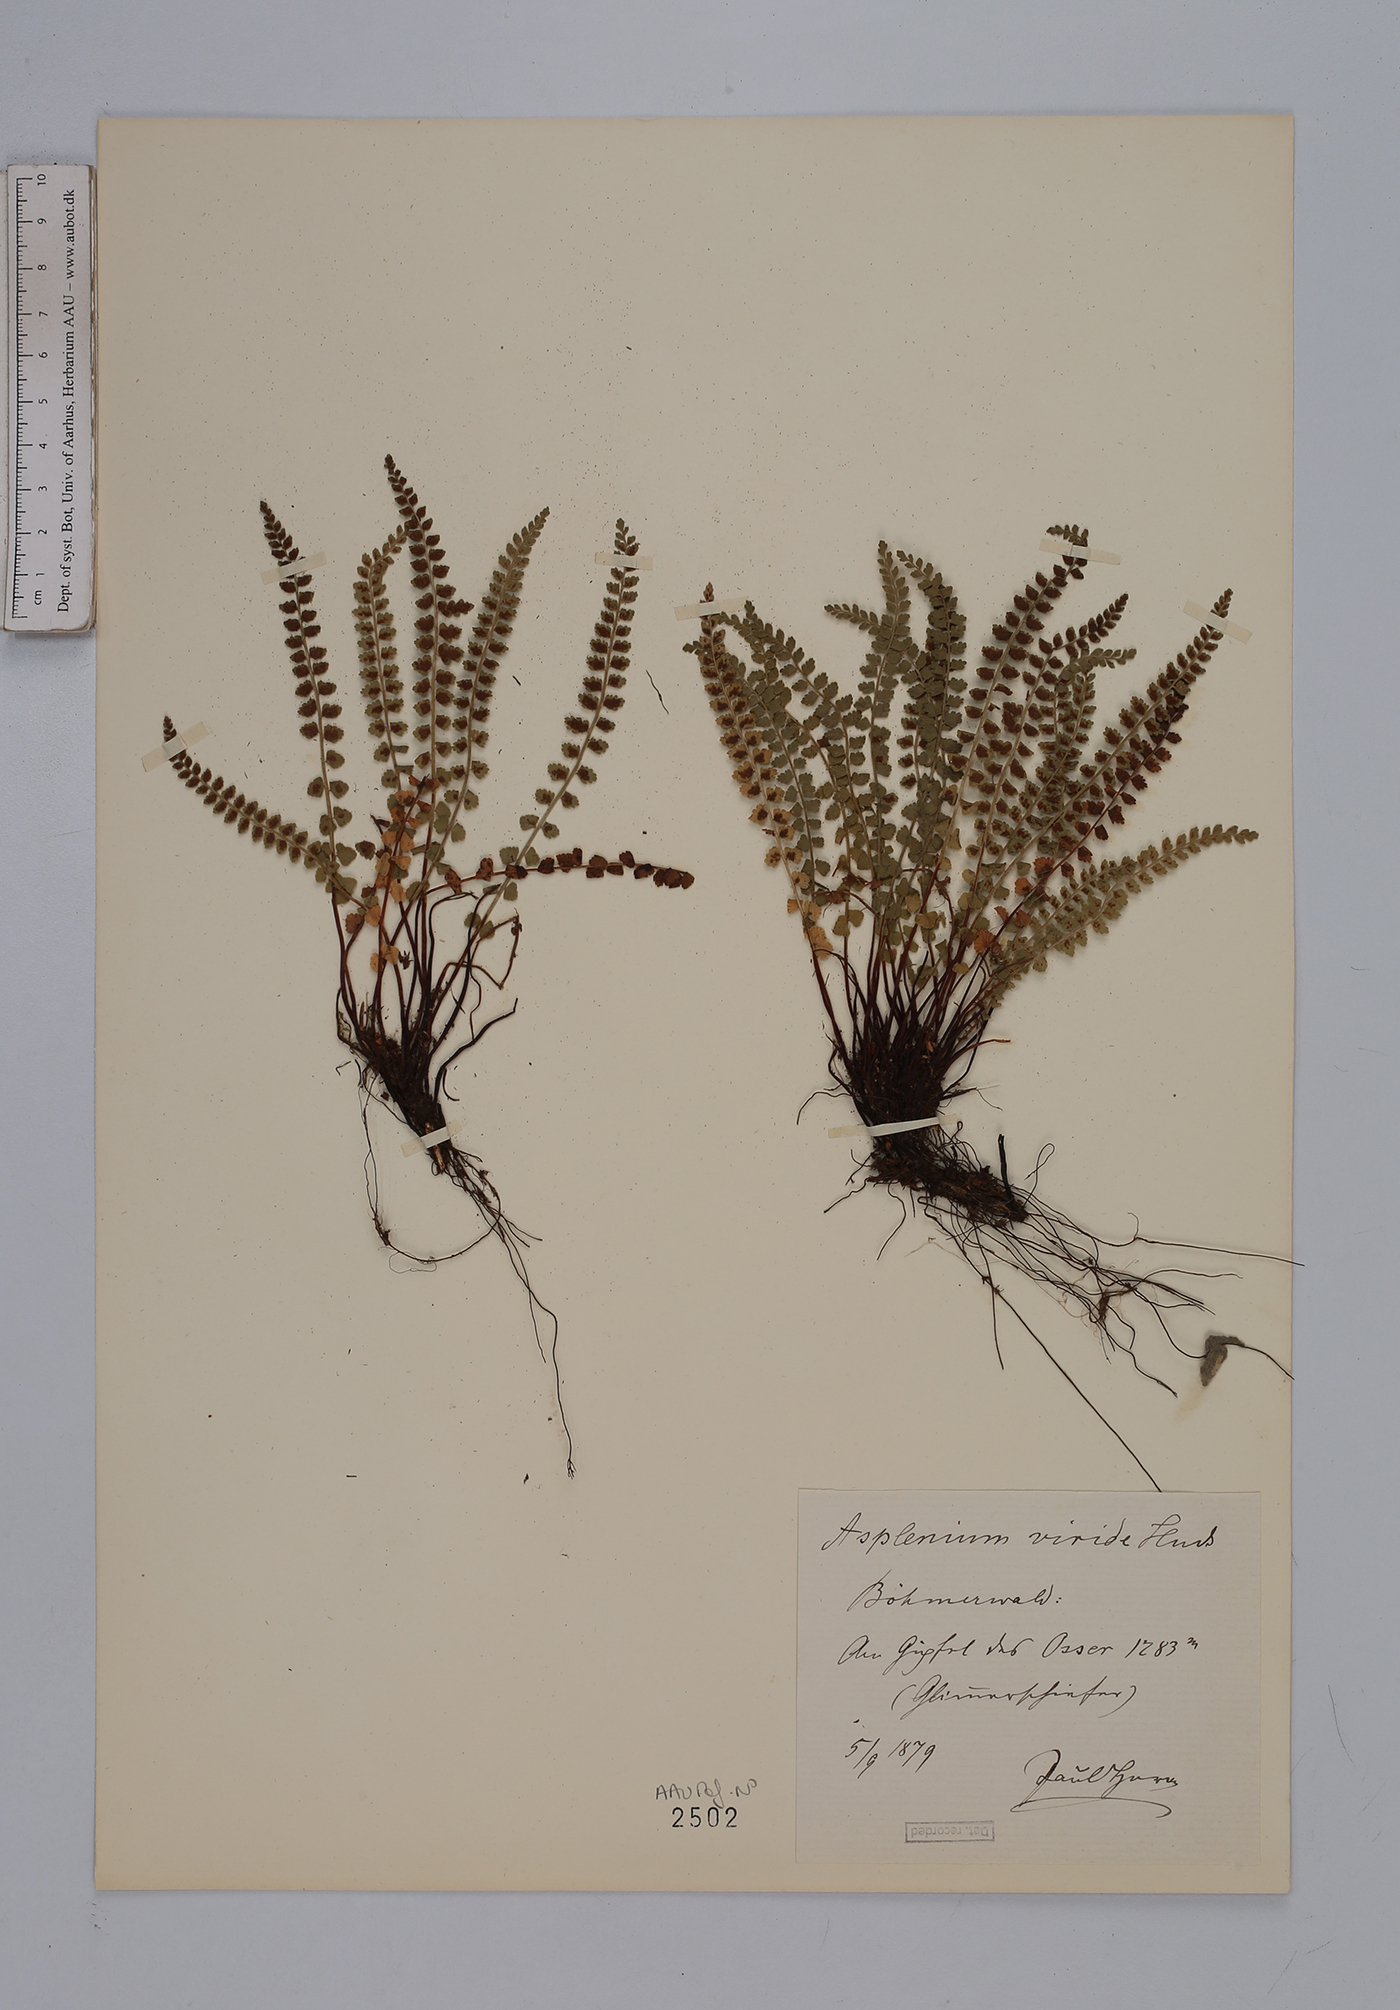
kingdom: Plantae
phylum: Tracheophyta
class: Polypodiopsida
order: Polypodiales
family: Aspleniaceae
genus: Asplenium
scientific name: Asplenium viride
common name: Green spleenwort
